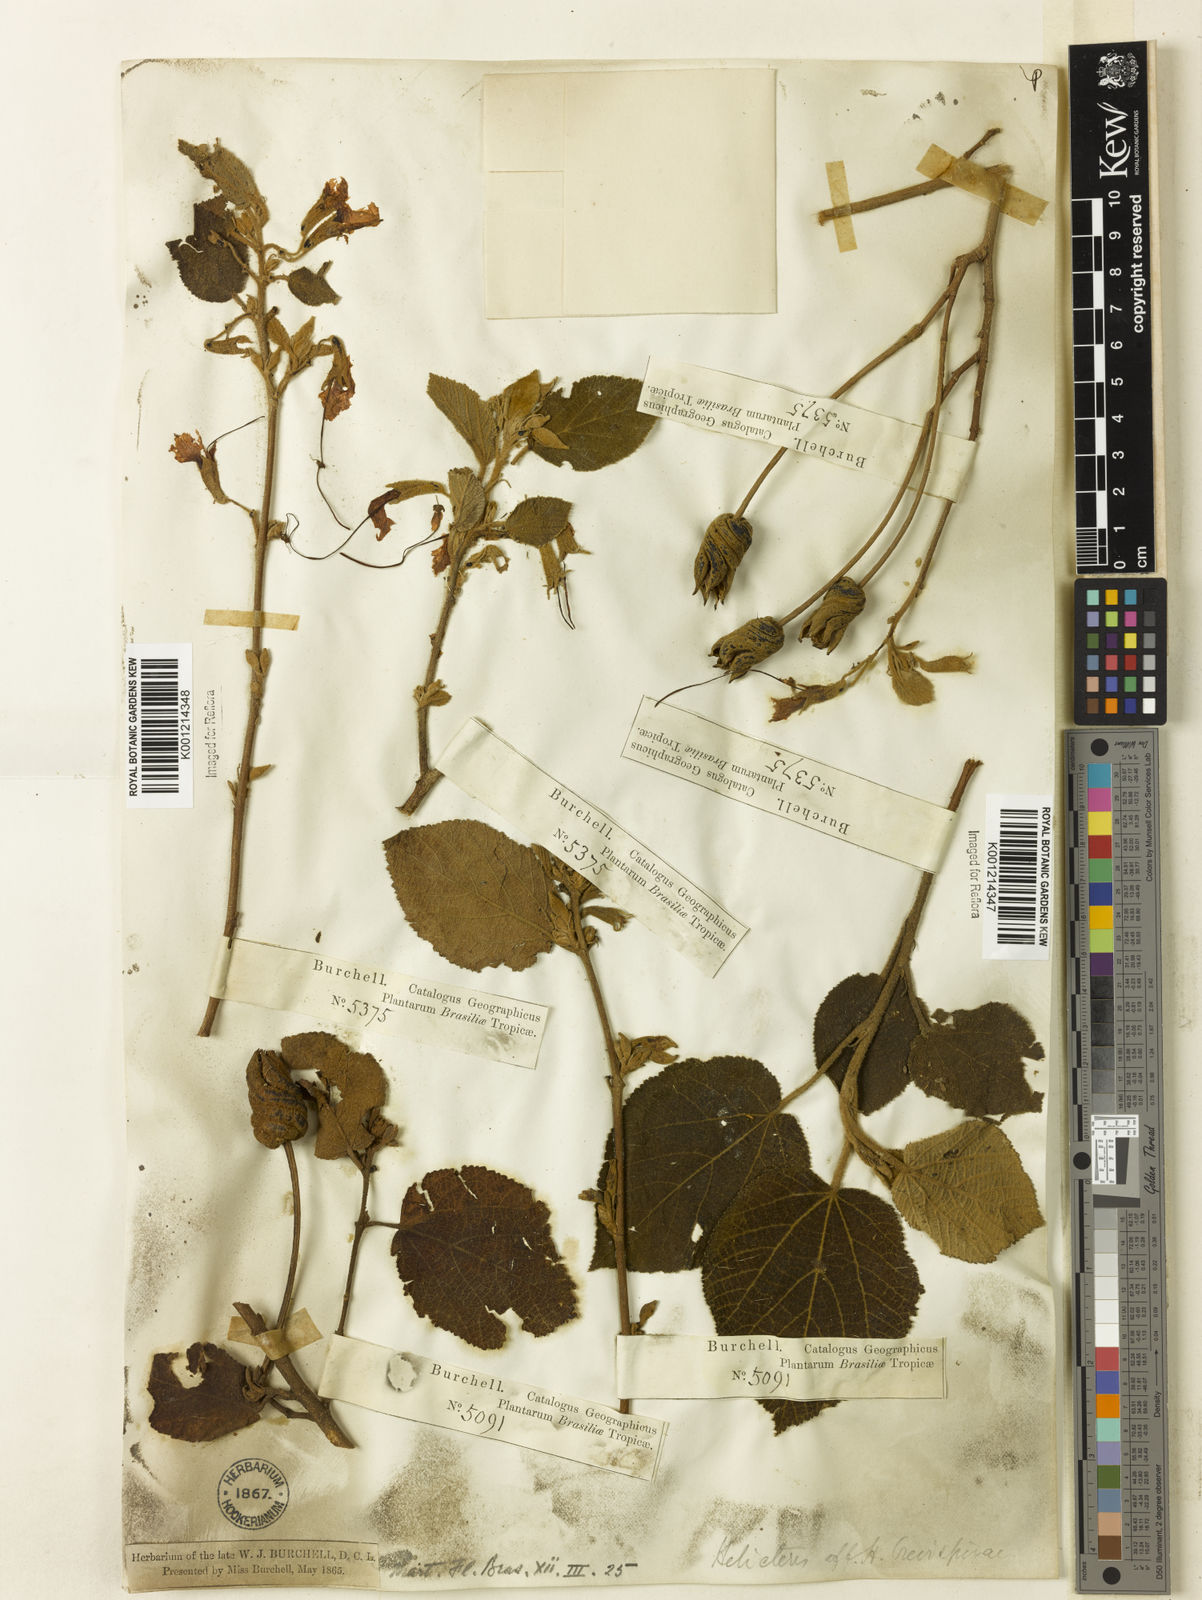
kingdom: Plantae
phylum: Tracheophyta
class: Magnoliopsida
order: Malvales
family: Malvaceae
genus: Helicteres
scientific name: Helicteres
